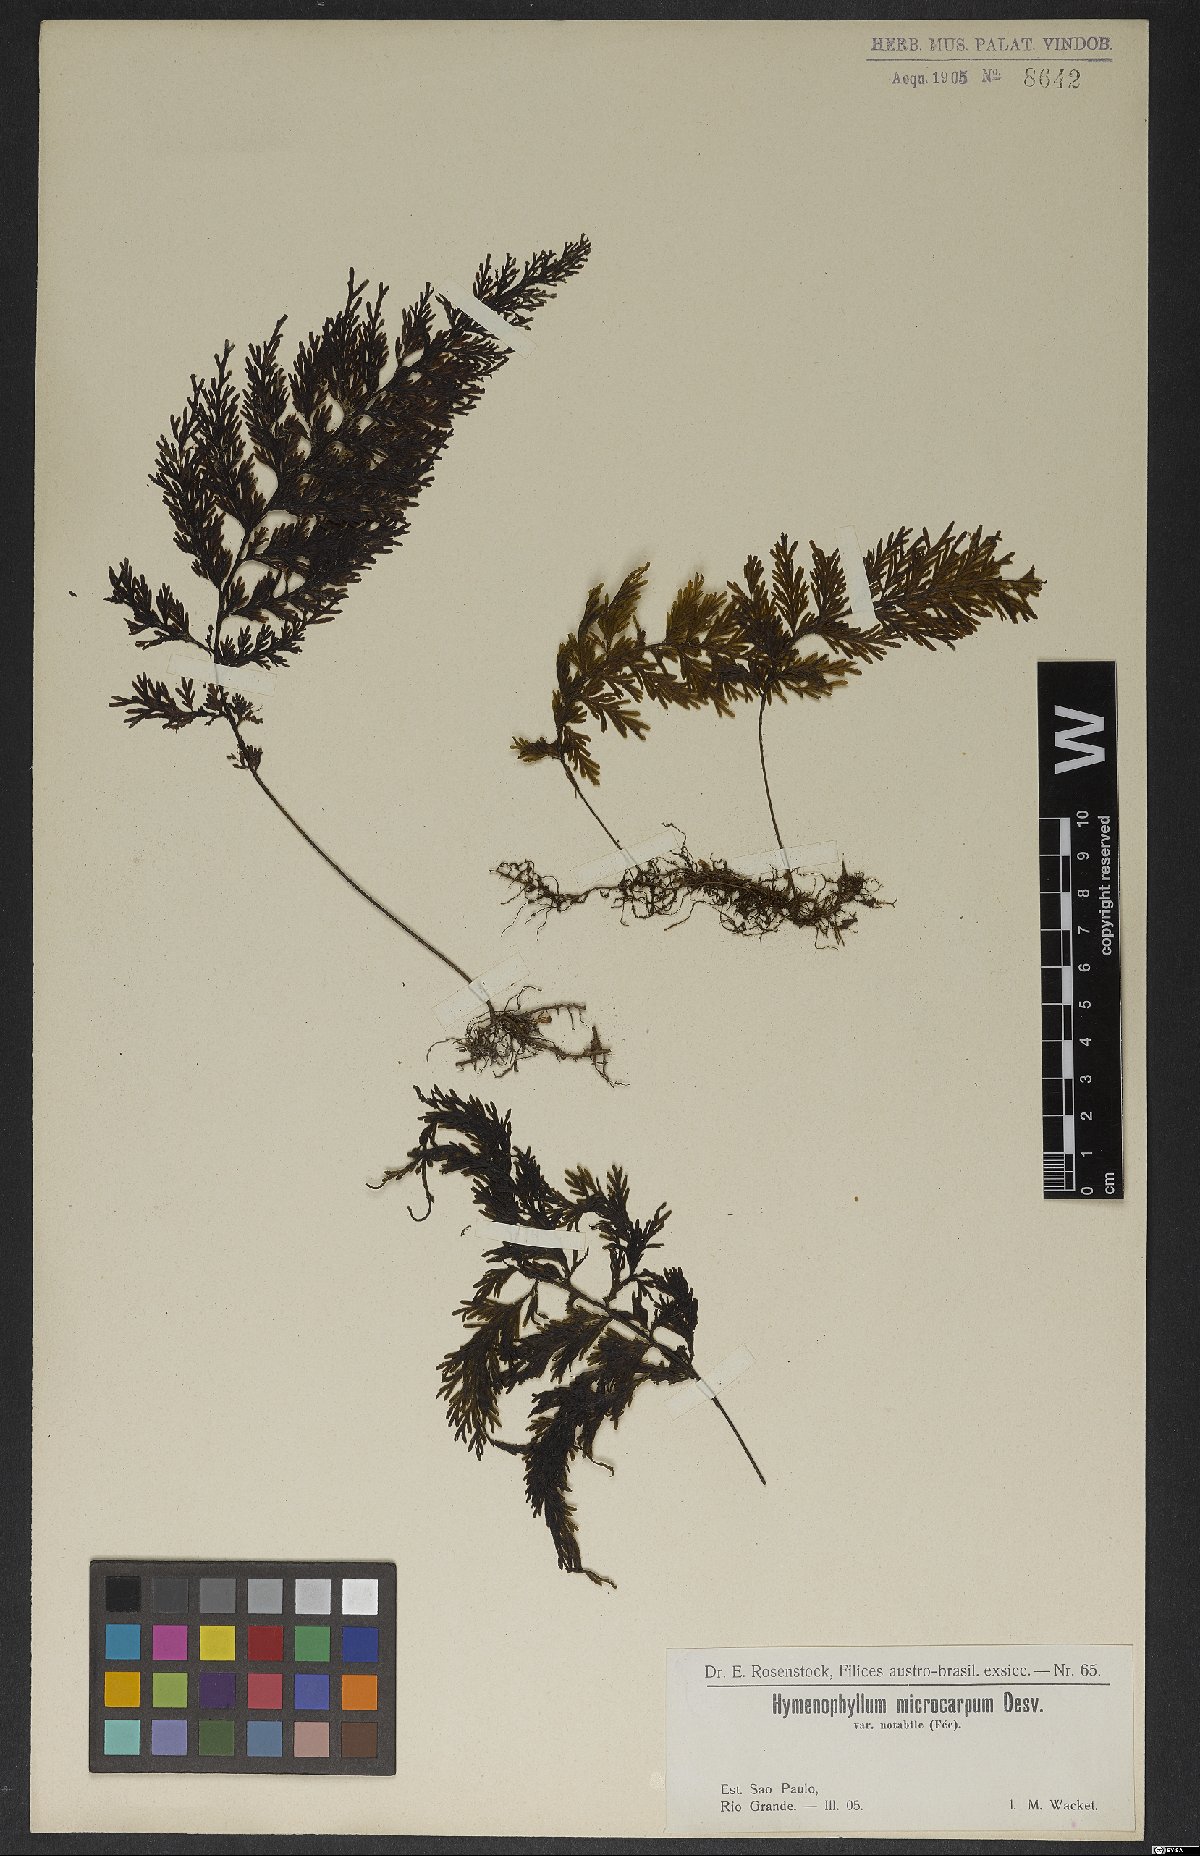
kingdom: Plantae
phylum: Tracheophyta
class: Polypodiopsida
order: Hymenophyllales
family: Hymenophyllaceae
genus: Hymenophyllum
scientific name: Hymenophyllum microcarpum
